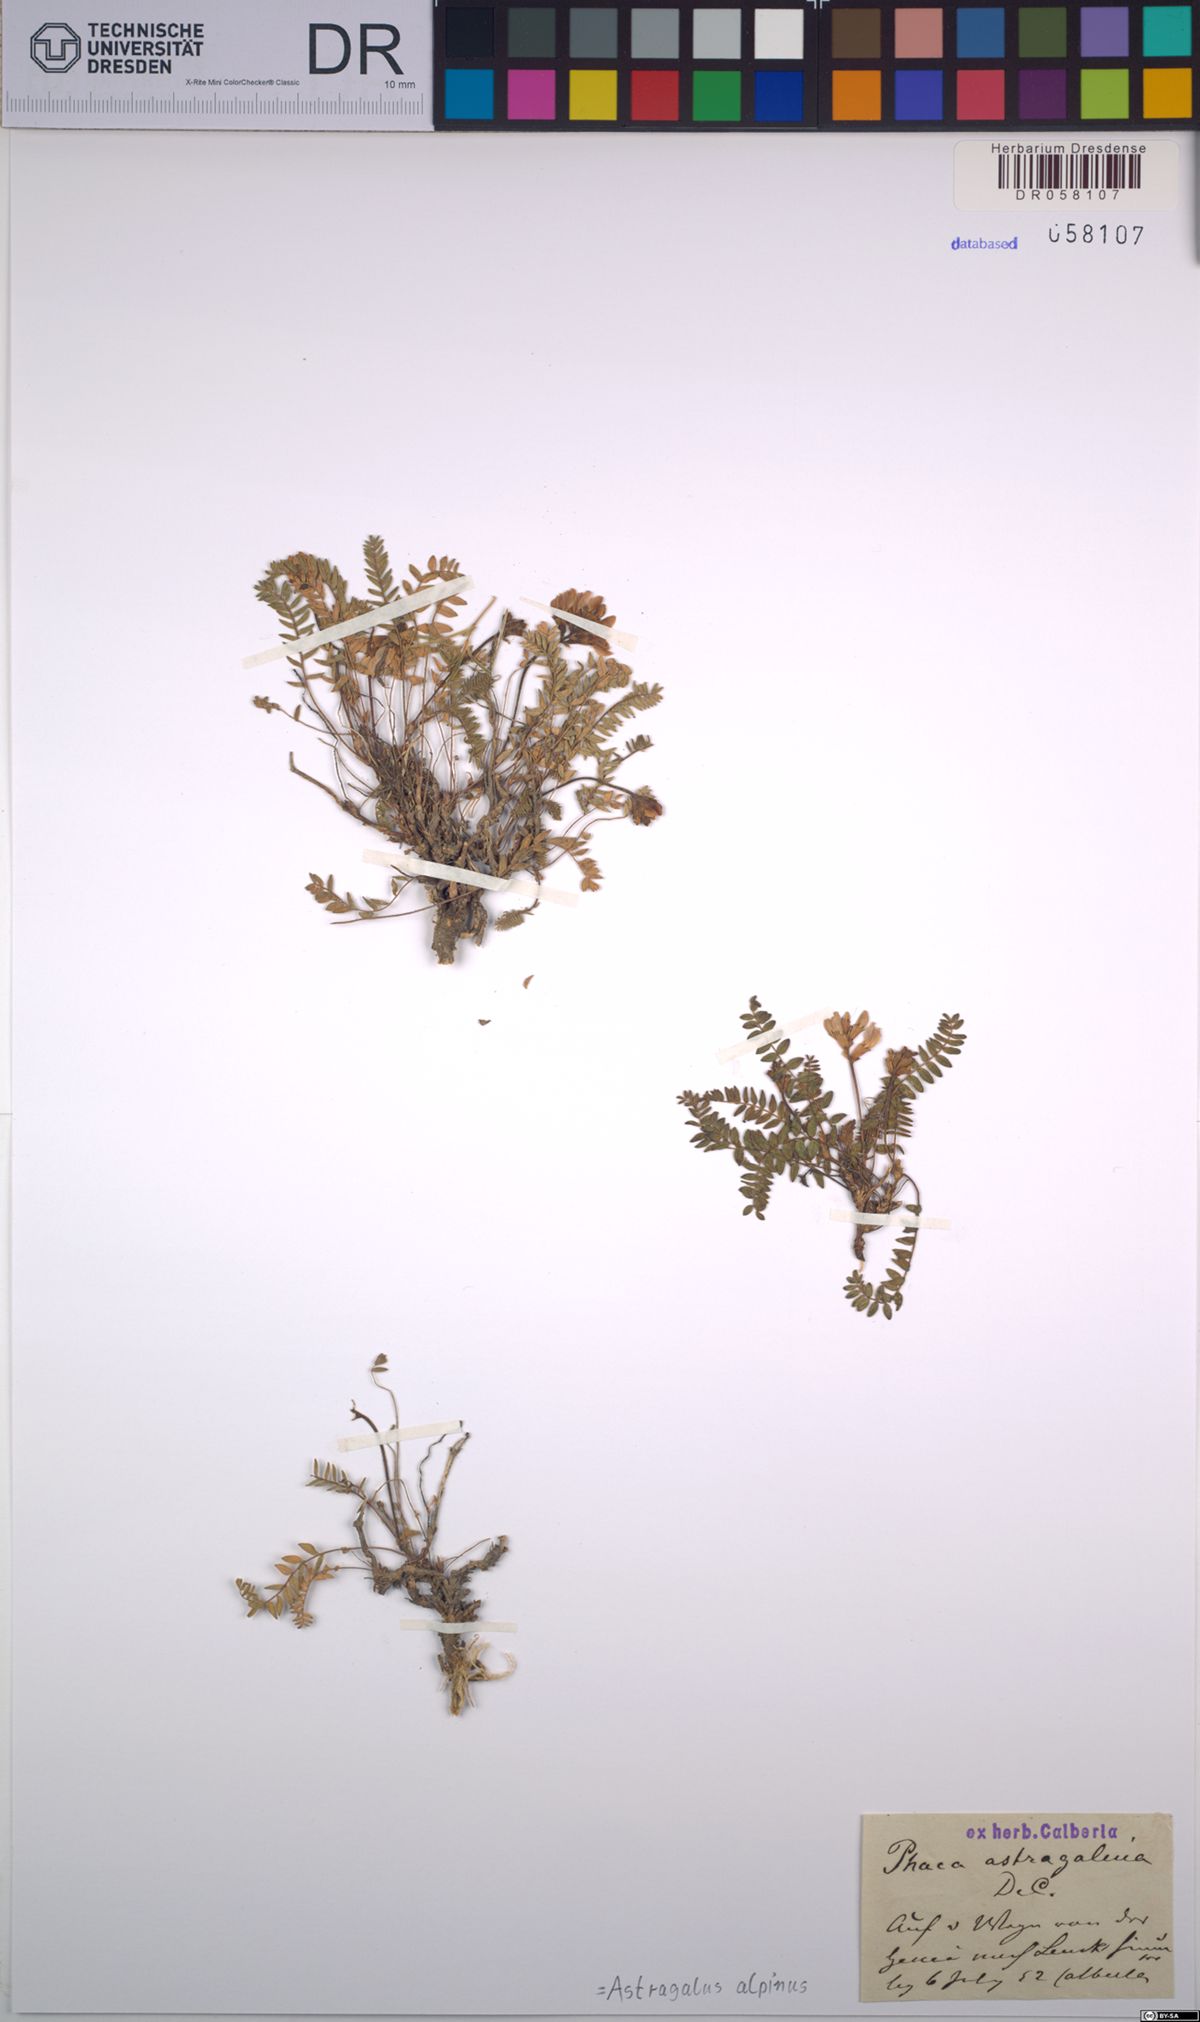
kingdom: Plantae
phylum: Tracheophyta
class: Magnoliopsida
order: Fabales
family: Fabaceae
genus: Astragalus
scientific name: Astragalus alpinus
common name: Alpine milk-vetch
